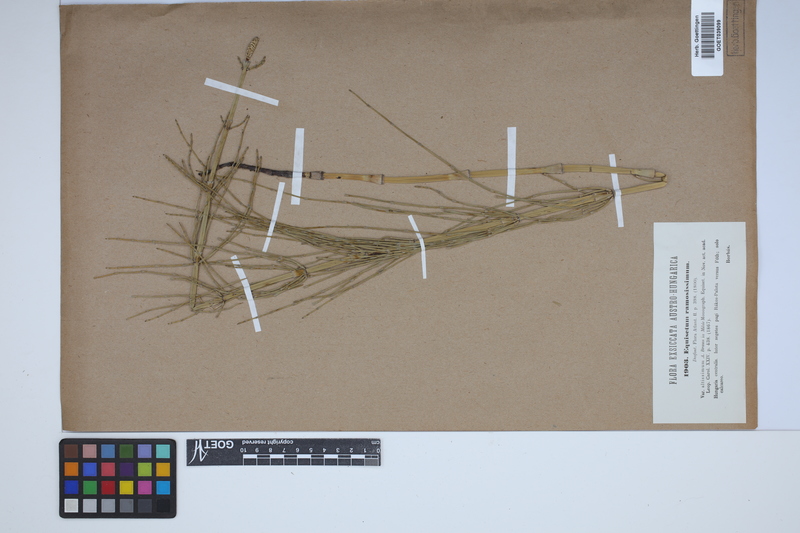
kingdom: Plantae
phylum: Tracheophyta
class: Polypodiopsida
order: Equisetales
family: Equisetaceae
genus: Equisetum
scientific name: Equisetum giganteum
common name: Giant horsetail
